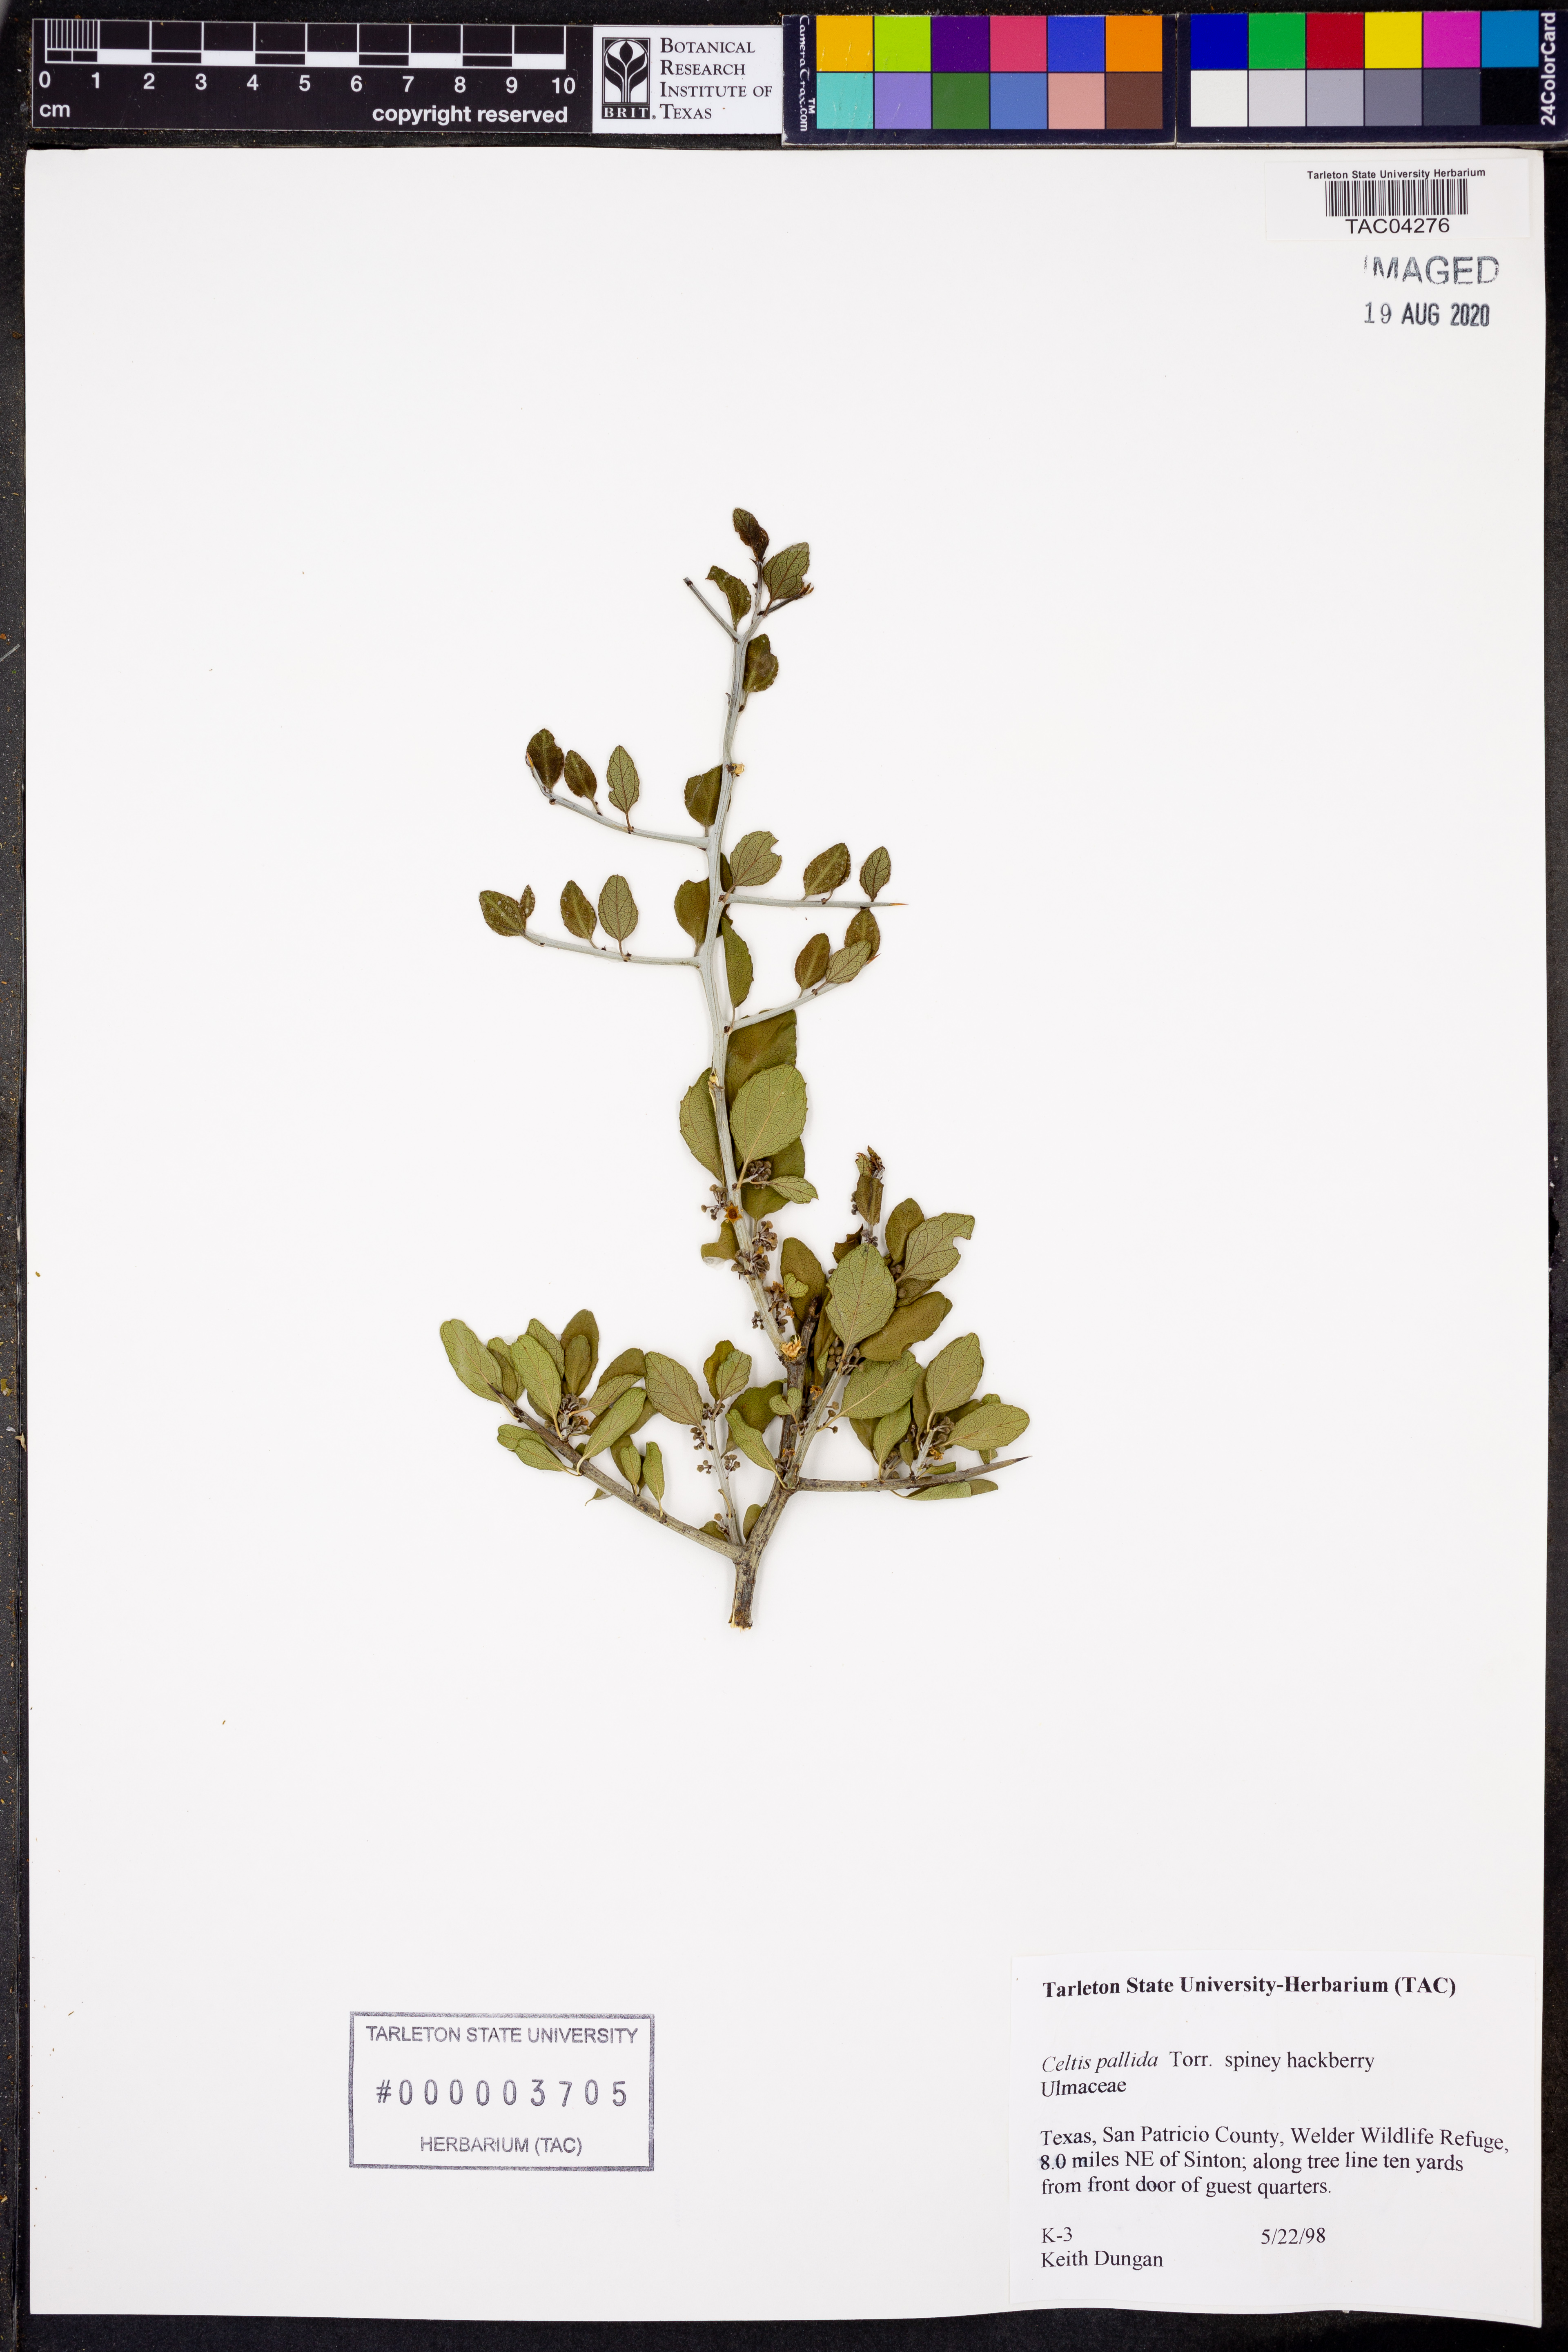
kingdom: Plantae
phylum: Tracheophyta
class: Magnoliopsida
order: Rosales
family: Cannabaceae
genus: Celtis
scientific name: Celtis pallida
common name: Desert hackberry
